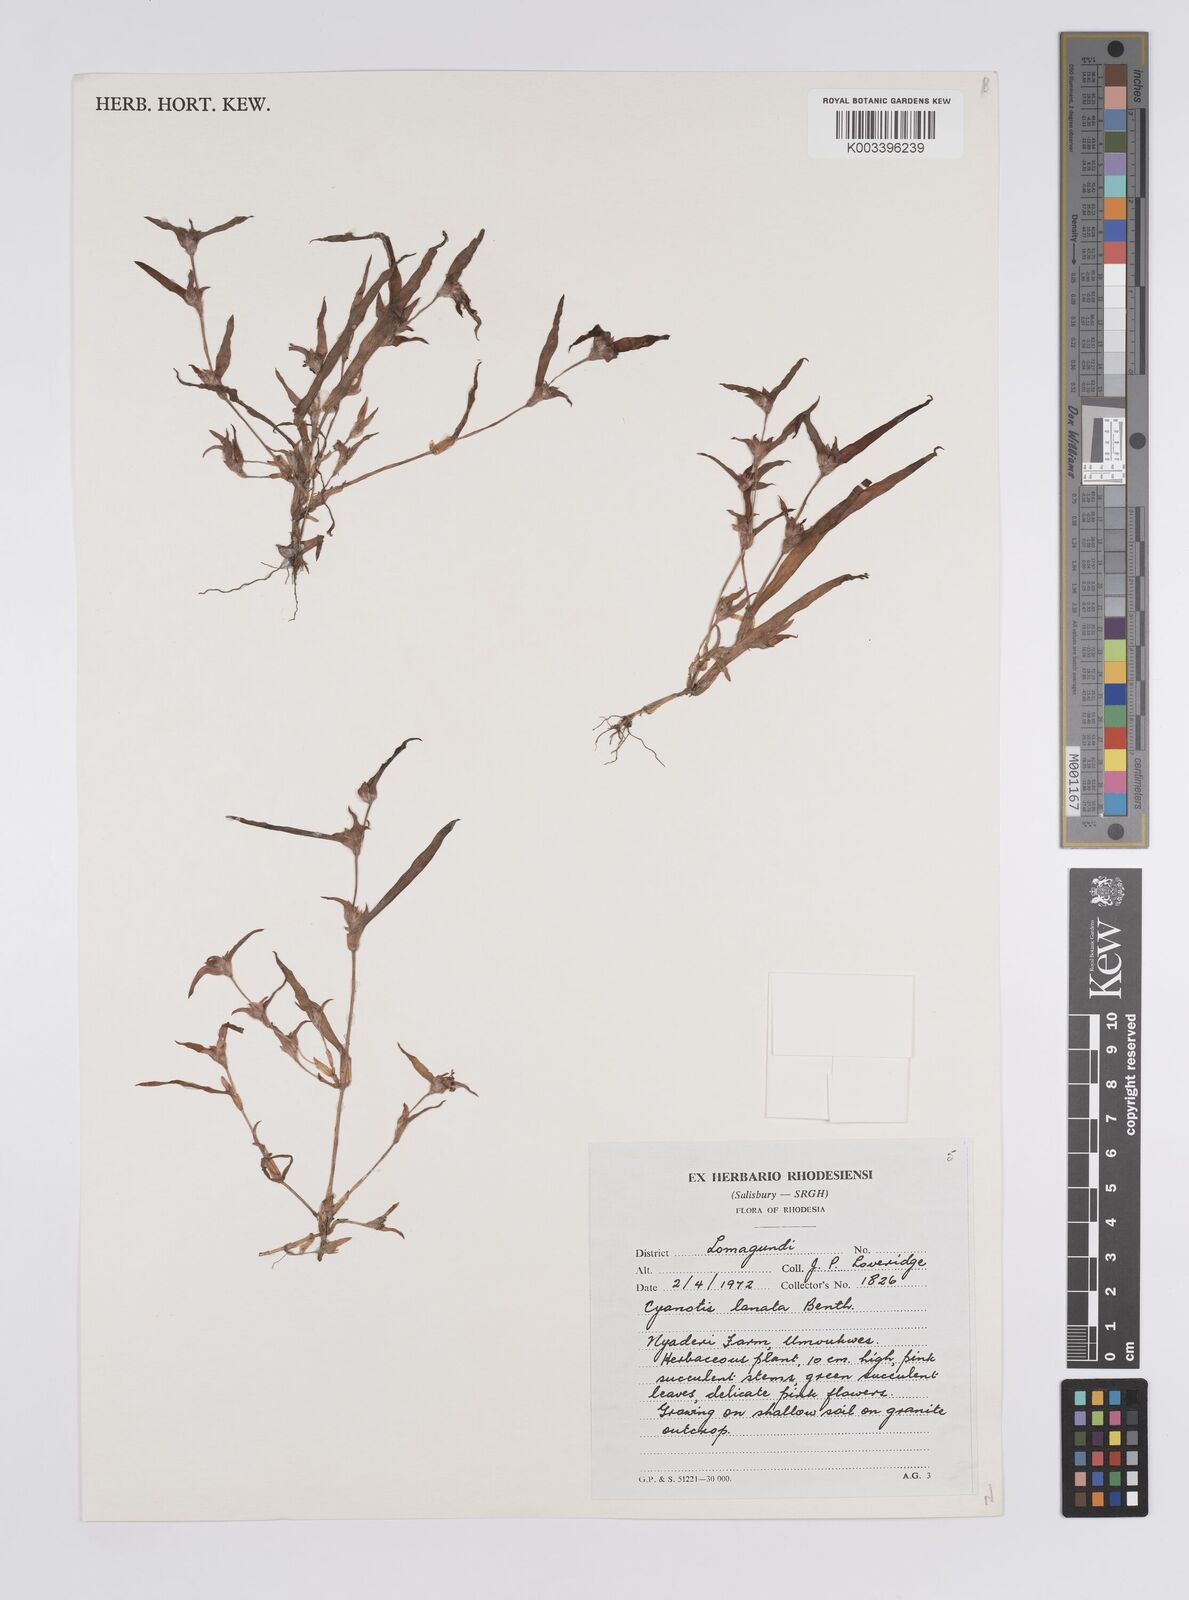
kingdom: Plantae
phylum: Tracheophyta
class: Liliopsida
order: Commelinales
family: Commelinaceae
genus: Cyanotis
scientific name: Cyanotis lanata
